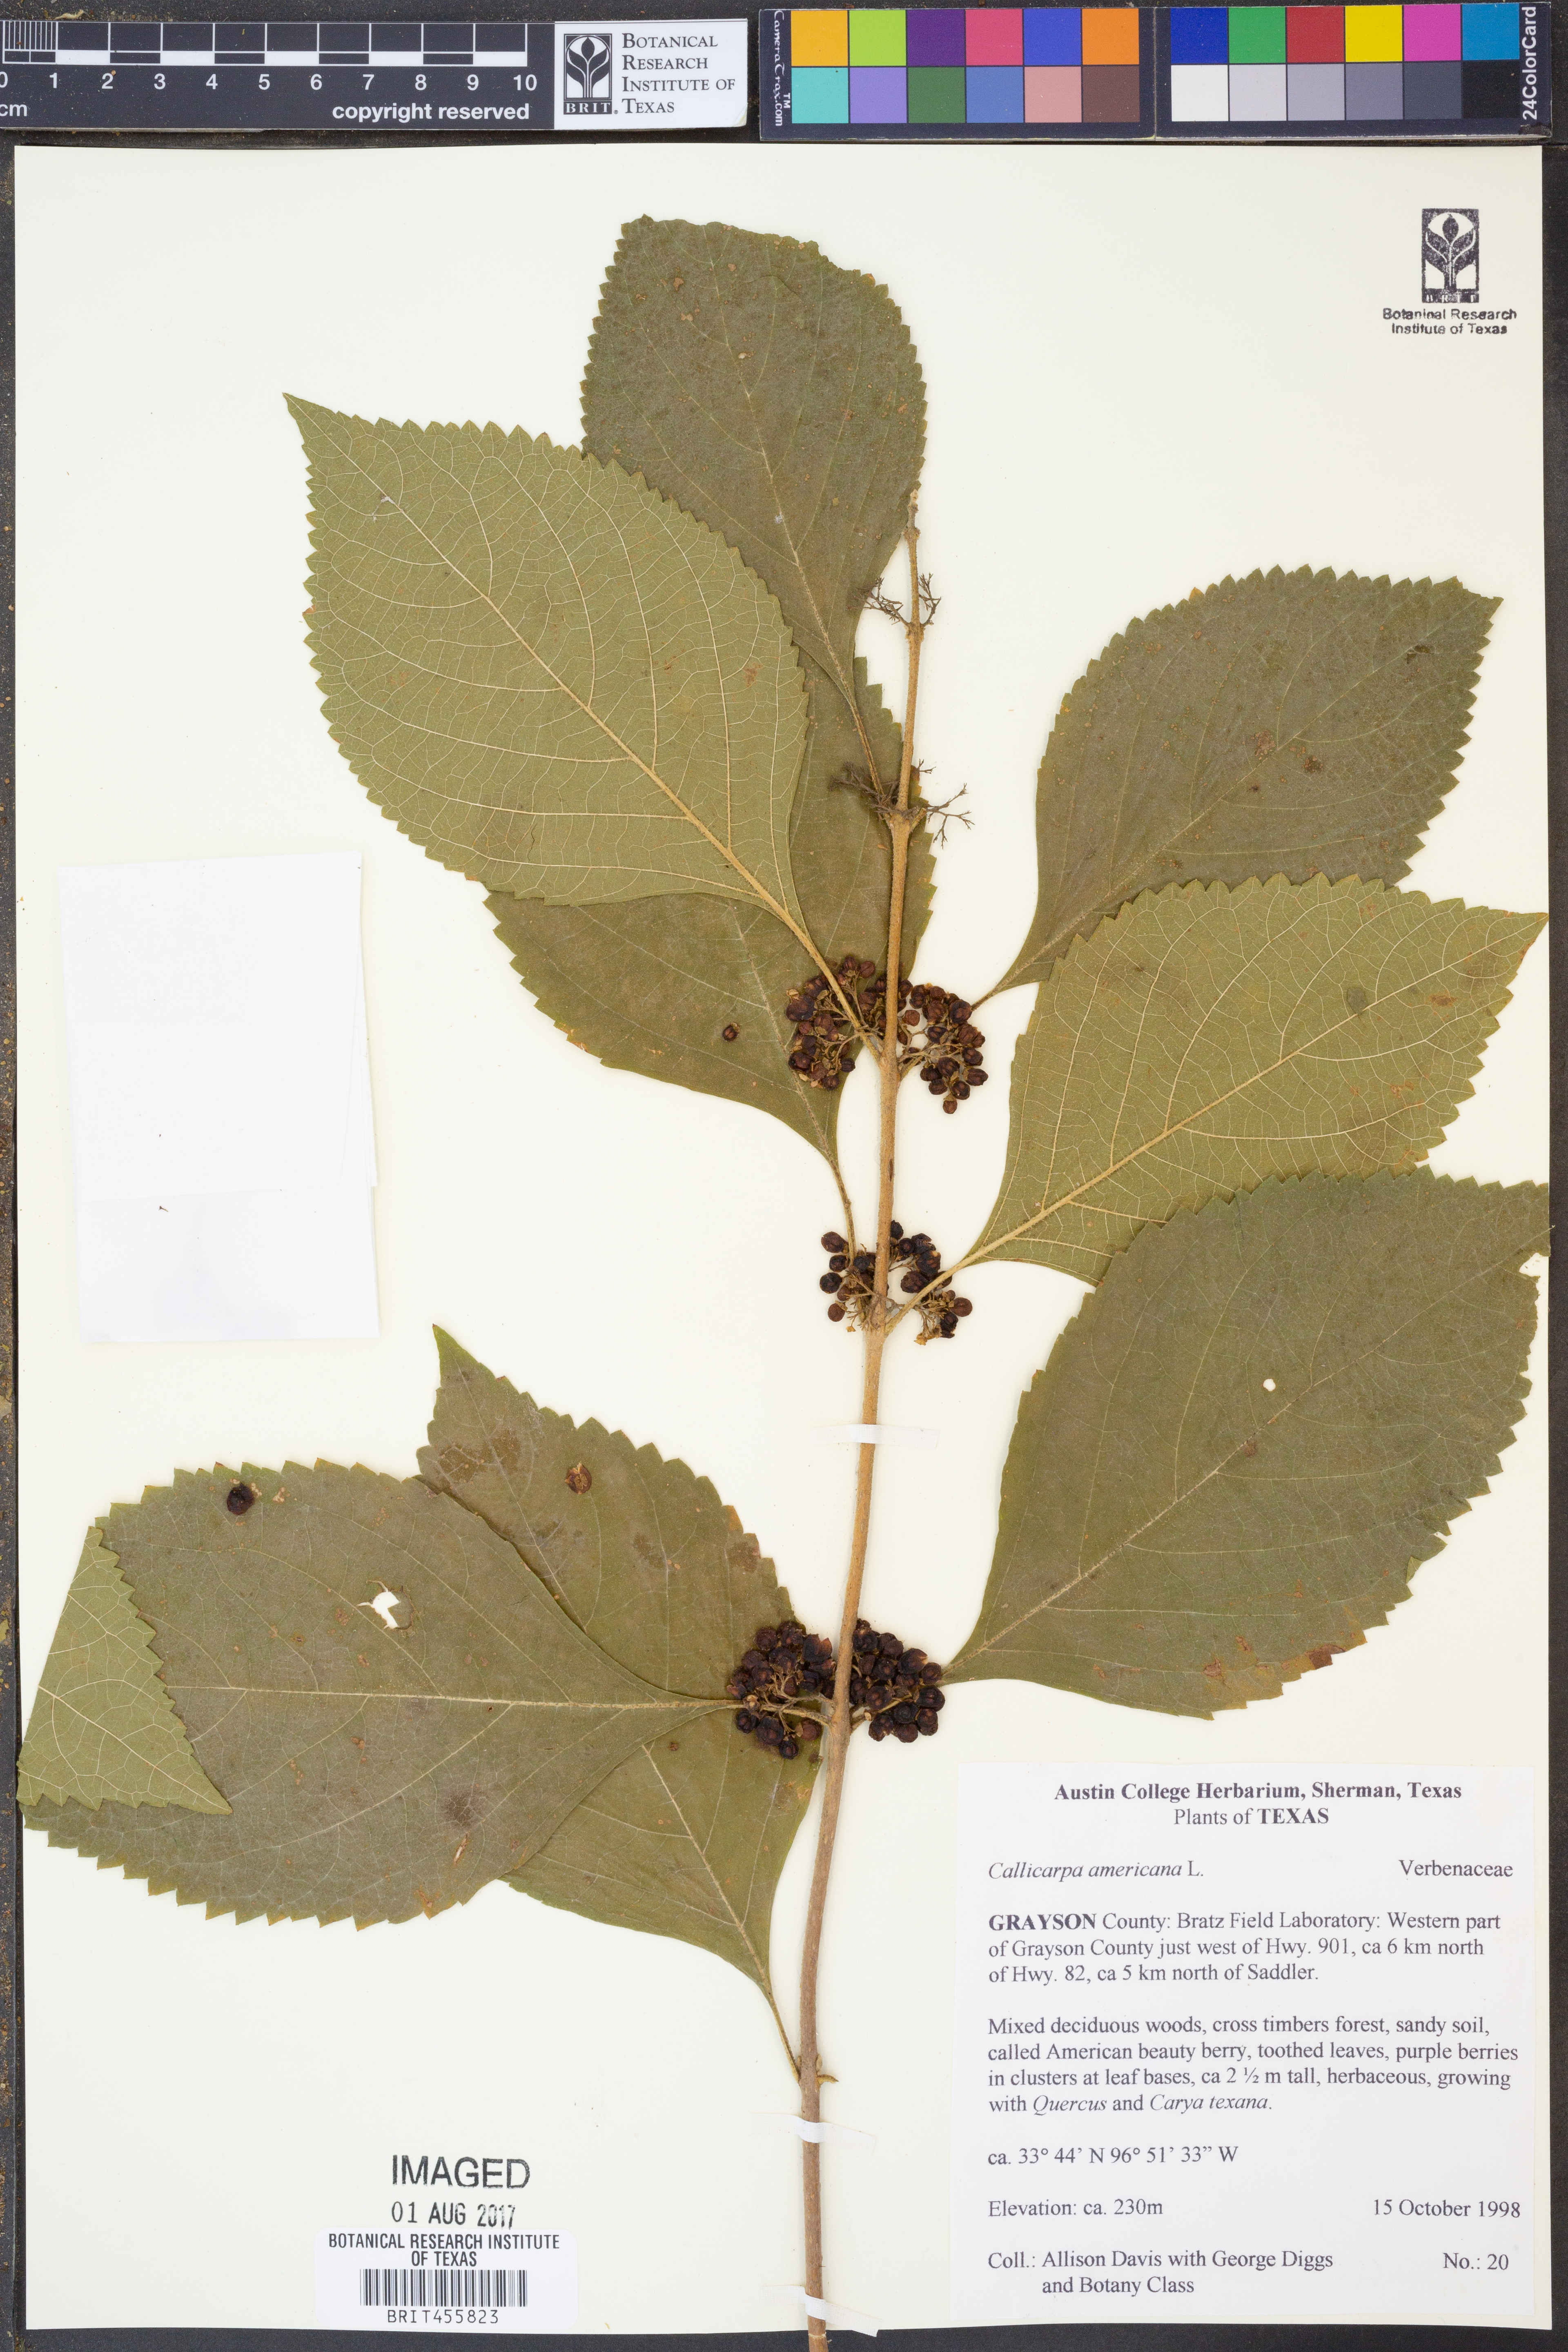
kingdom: Plantae
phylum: Tracheophyta
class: Magnoliopsida
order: Lamiales
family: Lamiaceae
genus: Callicarpa
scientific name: Callicarpa americana
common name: American beautyberry
